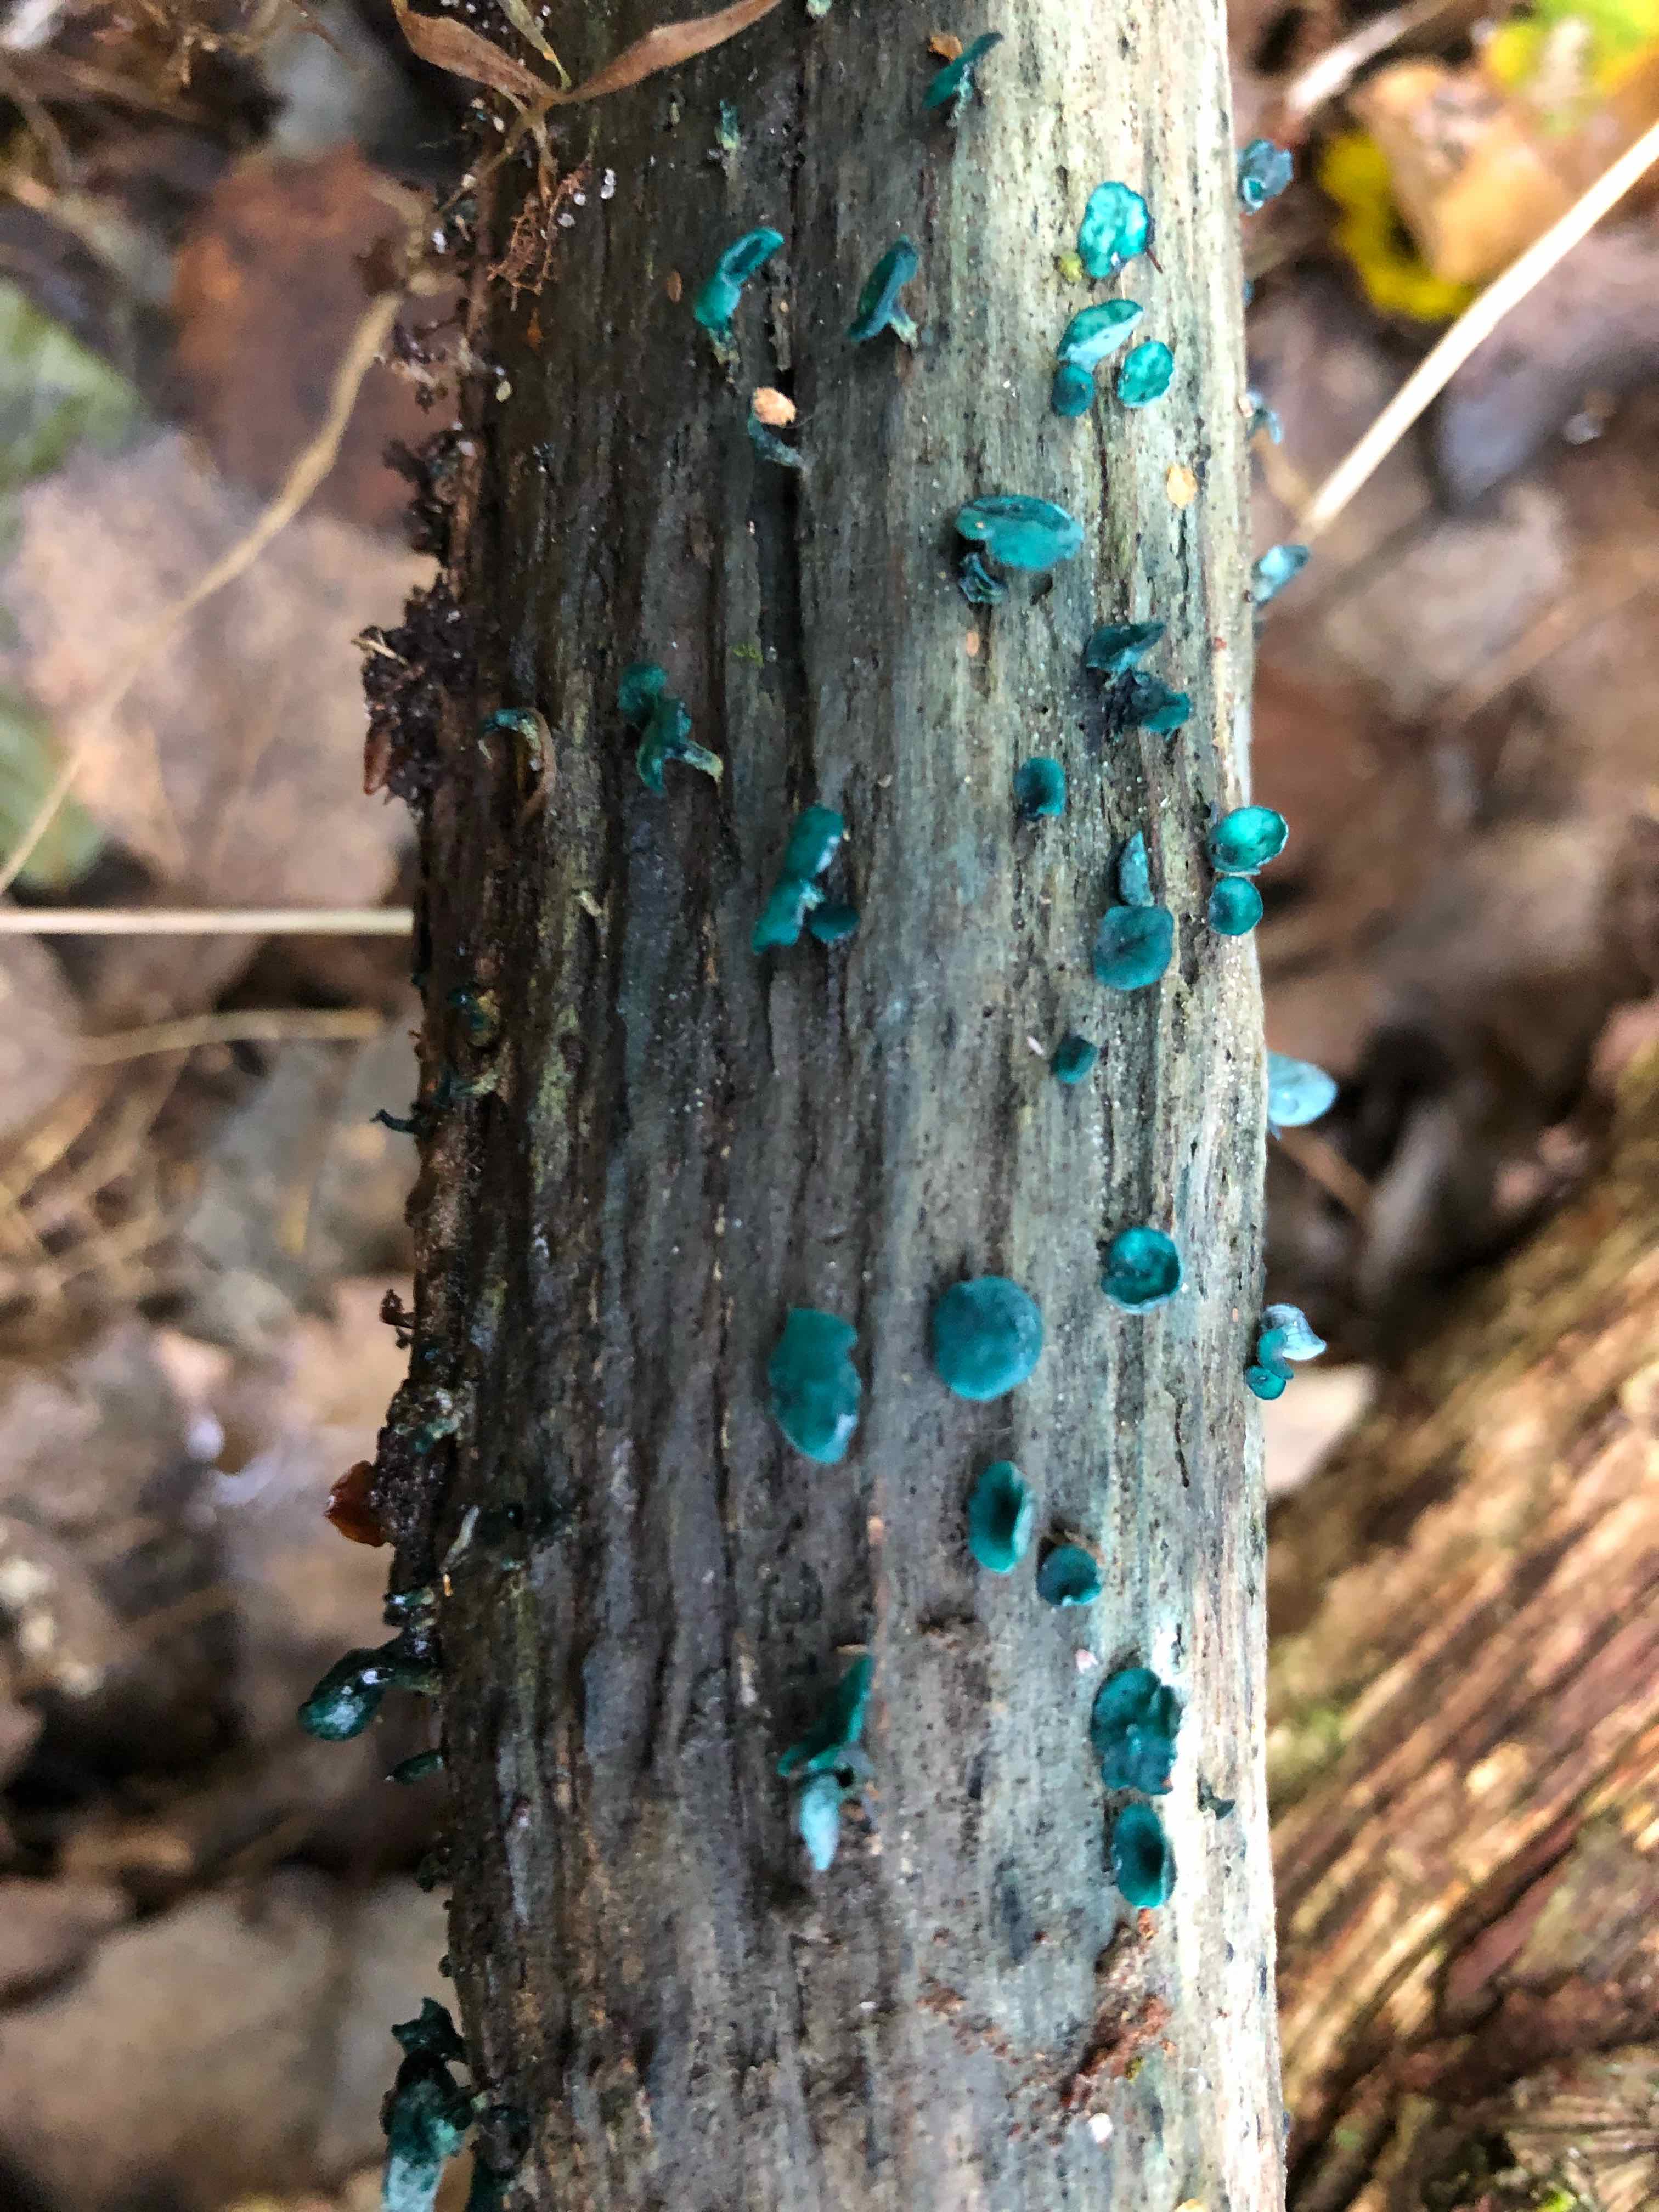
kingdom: Fungi
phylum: Ascomycota
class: Leotiomycetes
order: Helotiales
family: Chlorociboriaceae
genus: Chlorociboria
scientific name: Chlorociboria aeruginascens
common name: almindelig grønskive
